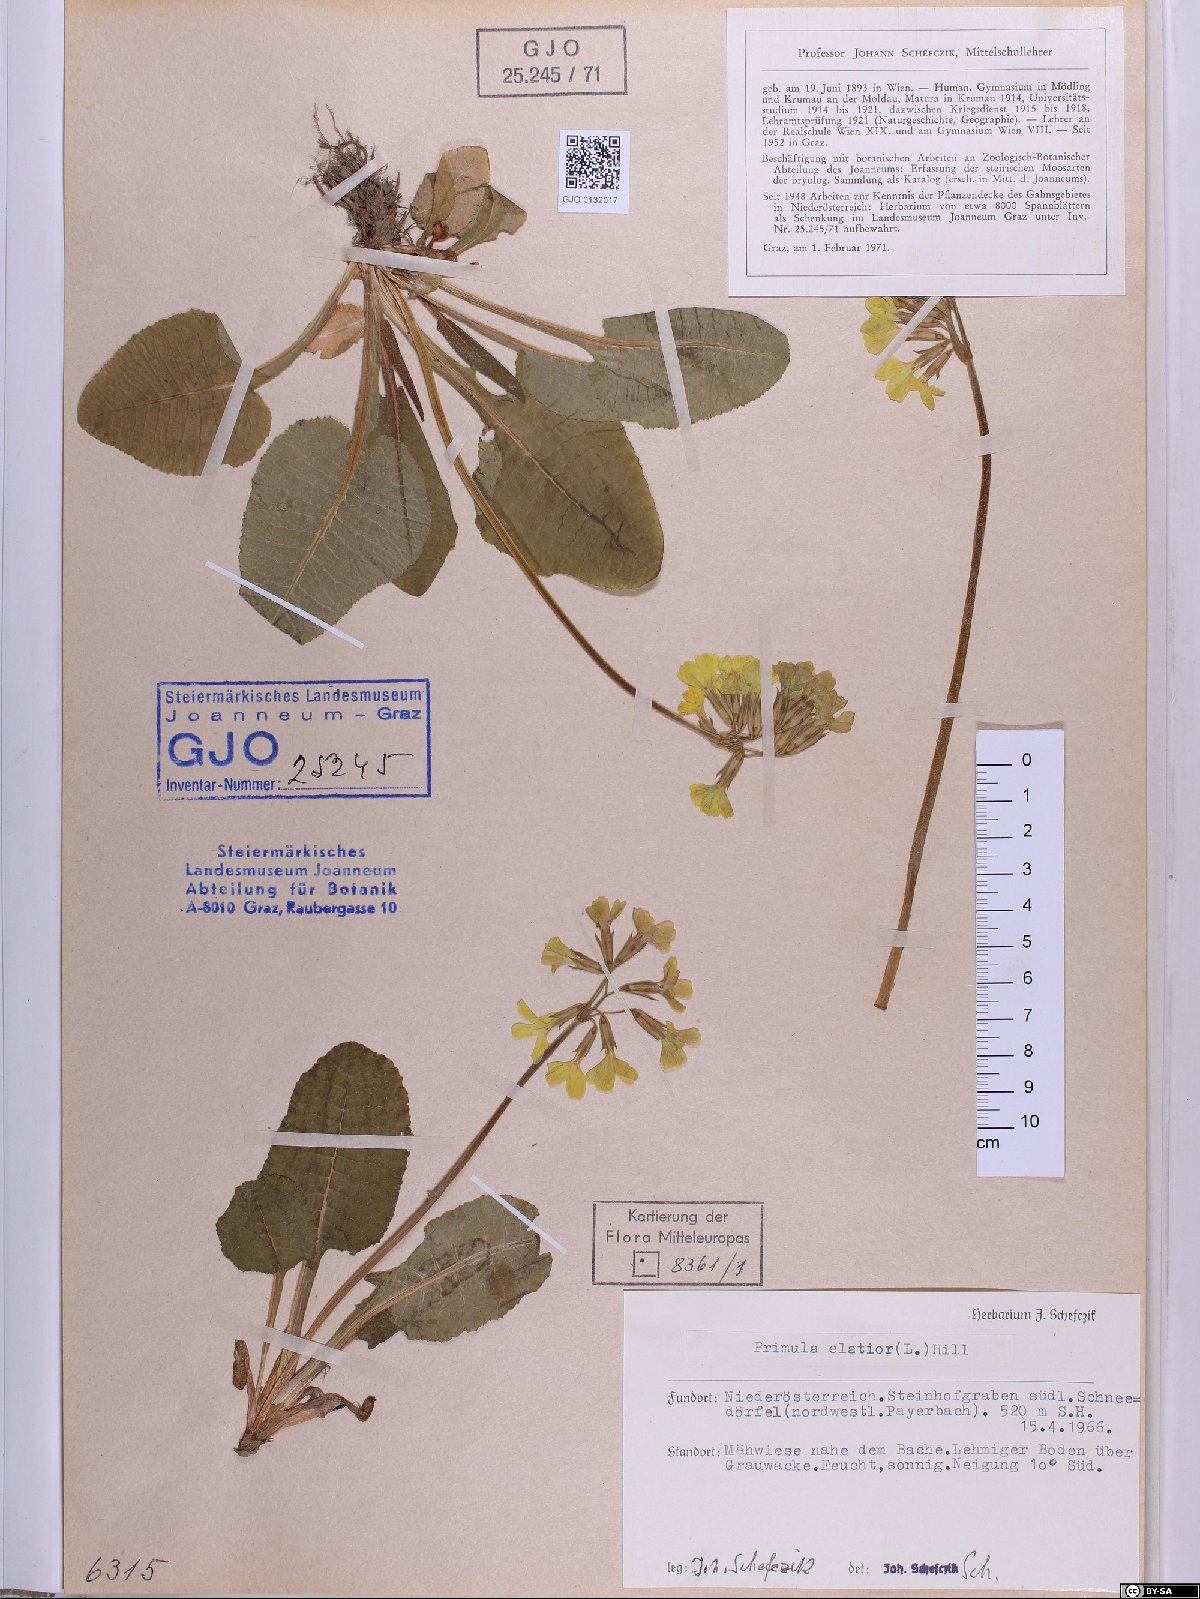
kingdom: Plantae
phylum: Tracheophyta
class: Magnoliopsida
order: Ericales
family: Primulaceae
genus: Primula
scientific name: Primula elatior
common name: Oxlip
